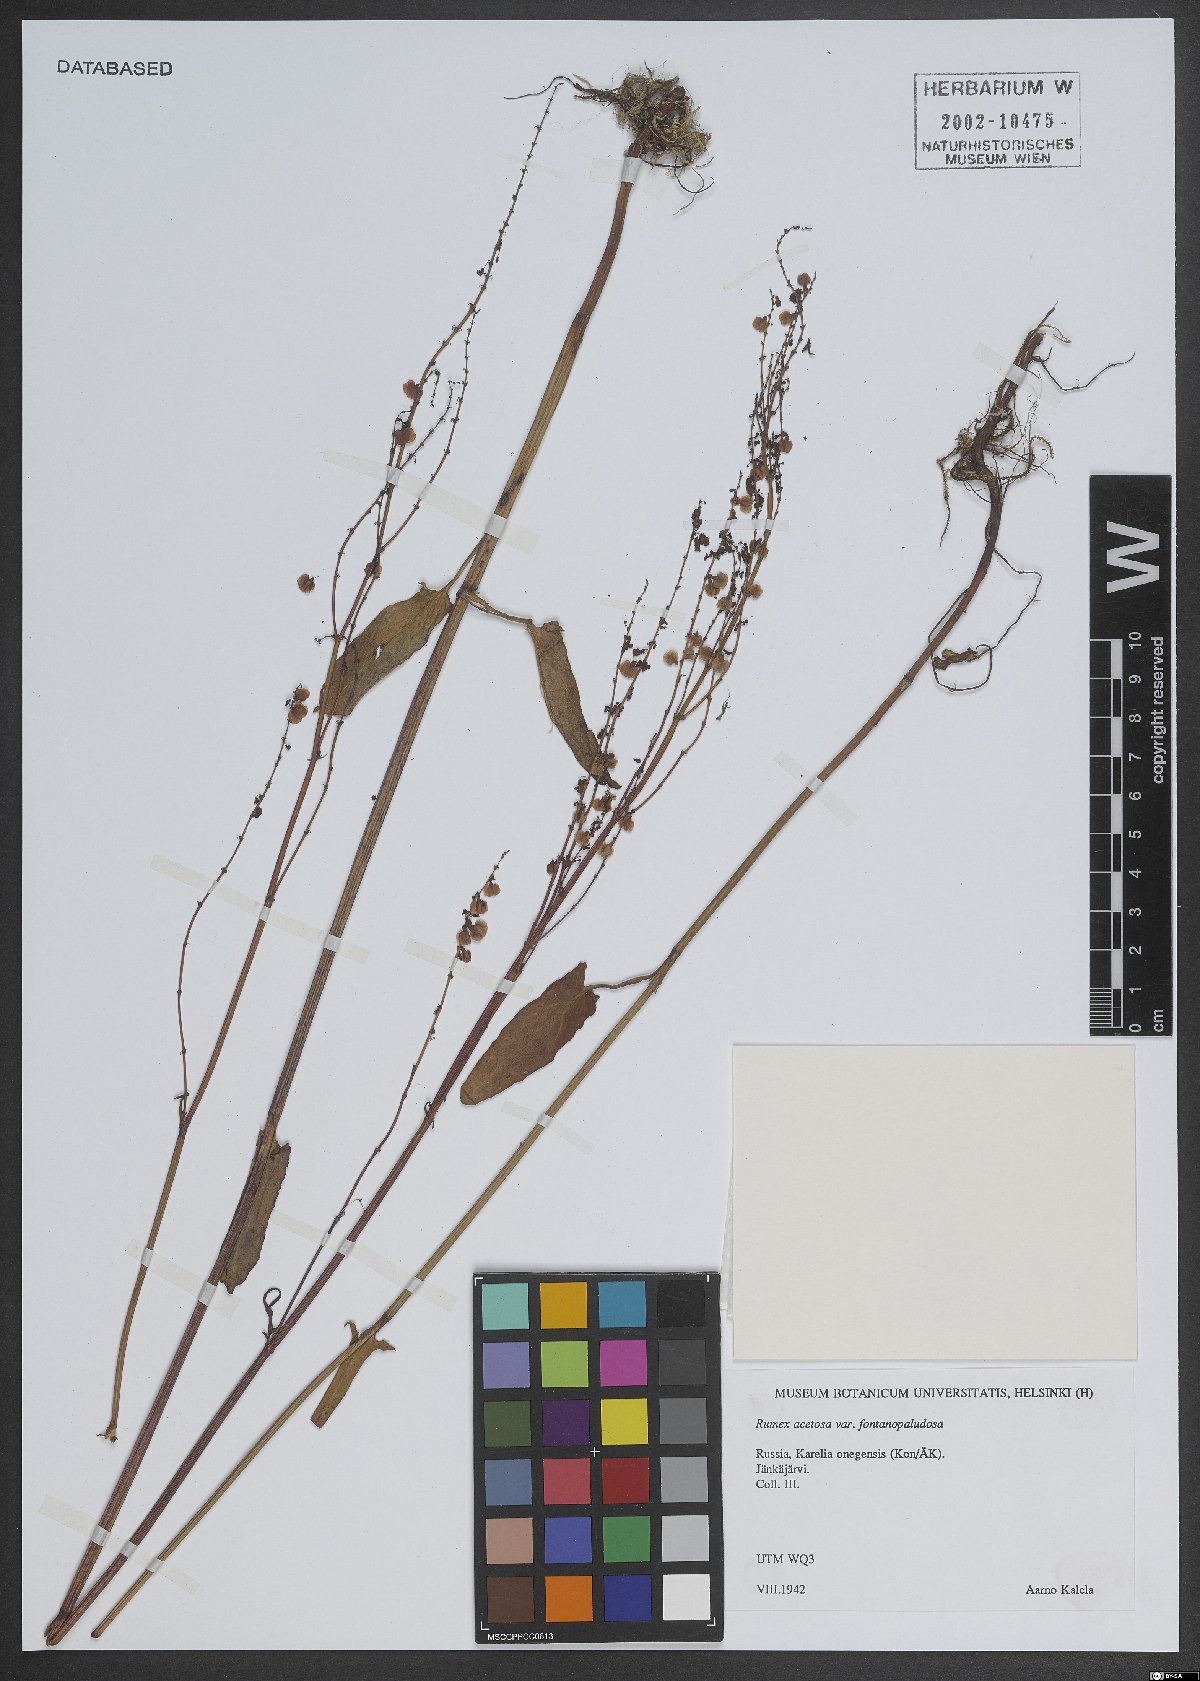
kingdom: Plantae
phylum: Tracheophyta
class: Magnoliopsida
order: Caryophyllales
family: Polygonaceae
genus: Rumex
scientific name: Rumex acetosa
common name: Garden sorrel
